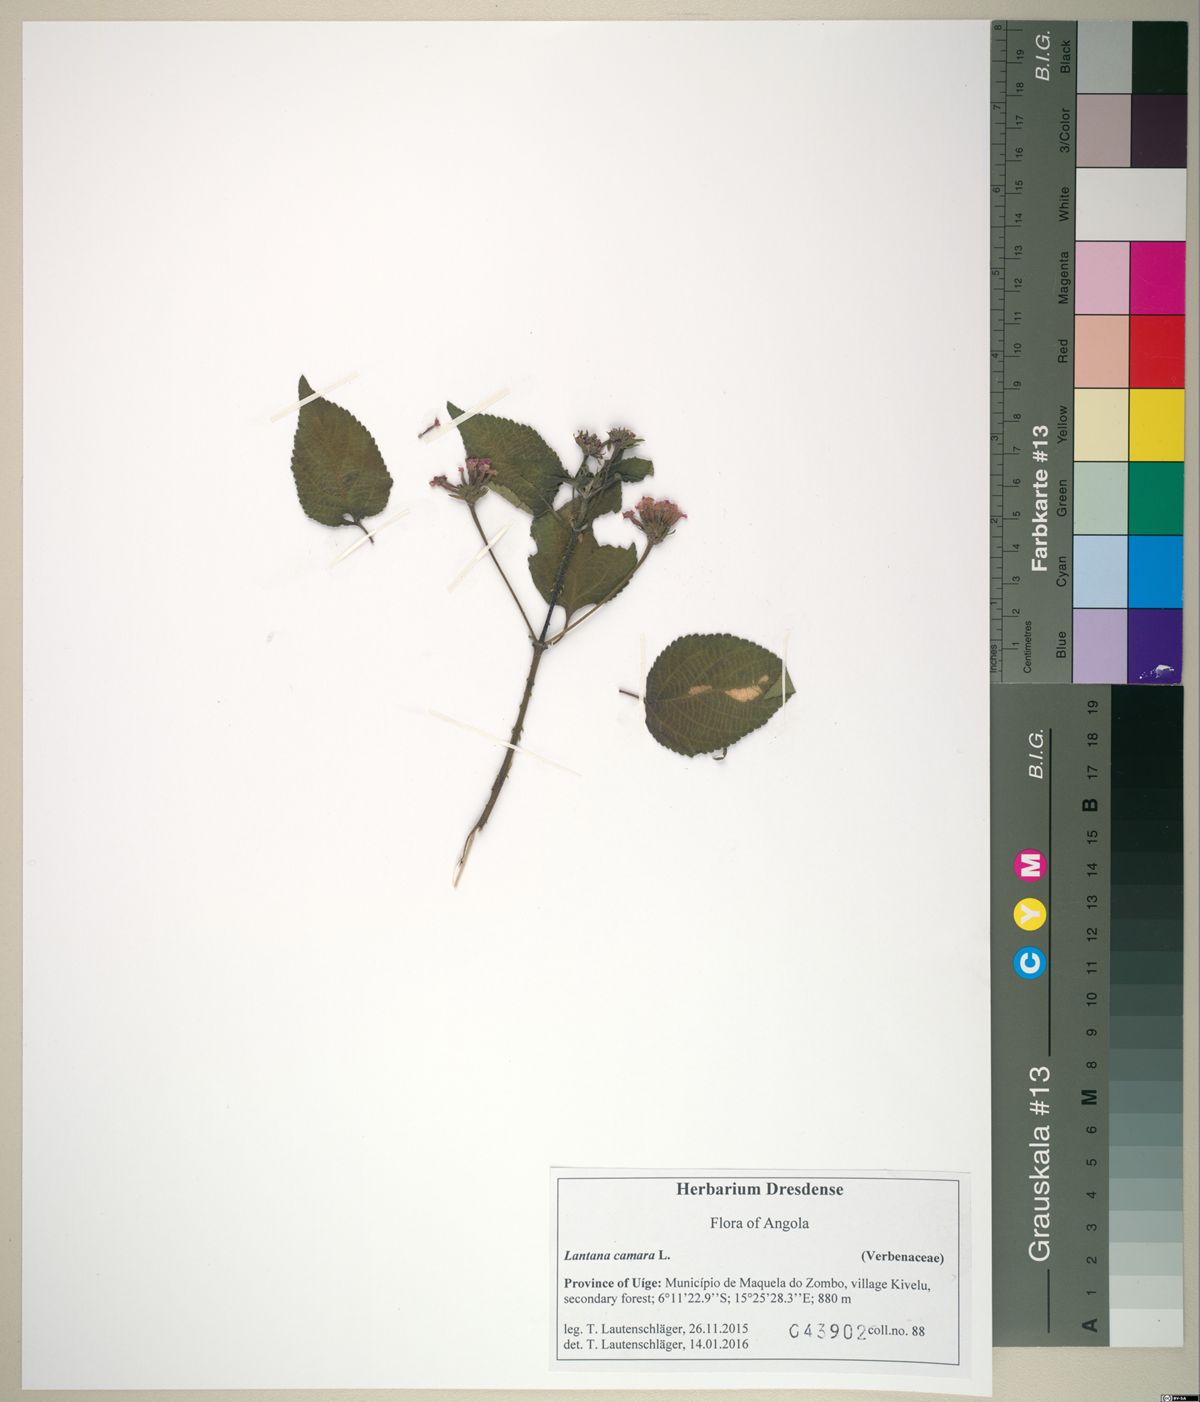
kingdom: Plantae
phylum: Tracheophyta
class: Magnoliopsida
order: Lamiales
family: Verbenaceae
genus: Lantana
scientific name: Lantana camara
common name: Lantana
